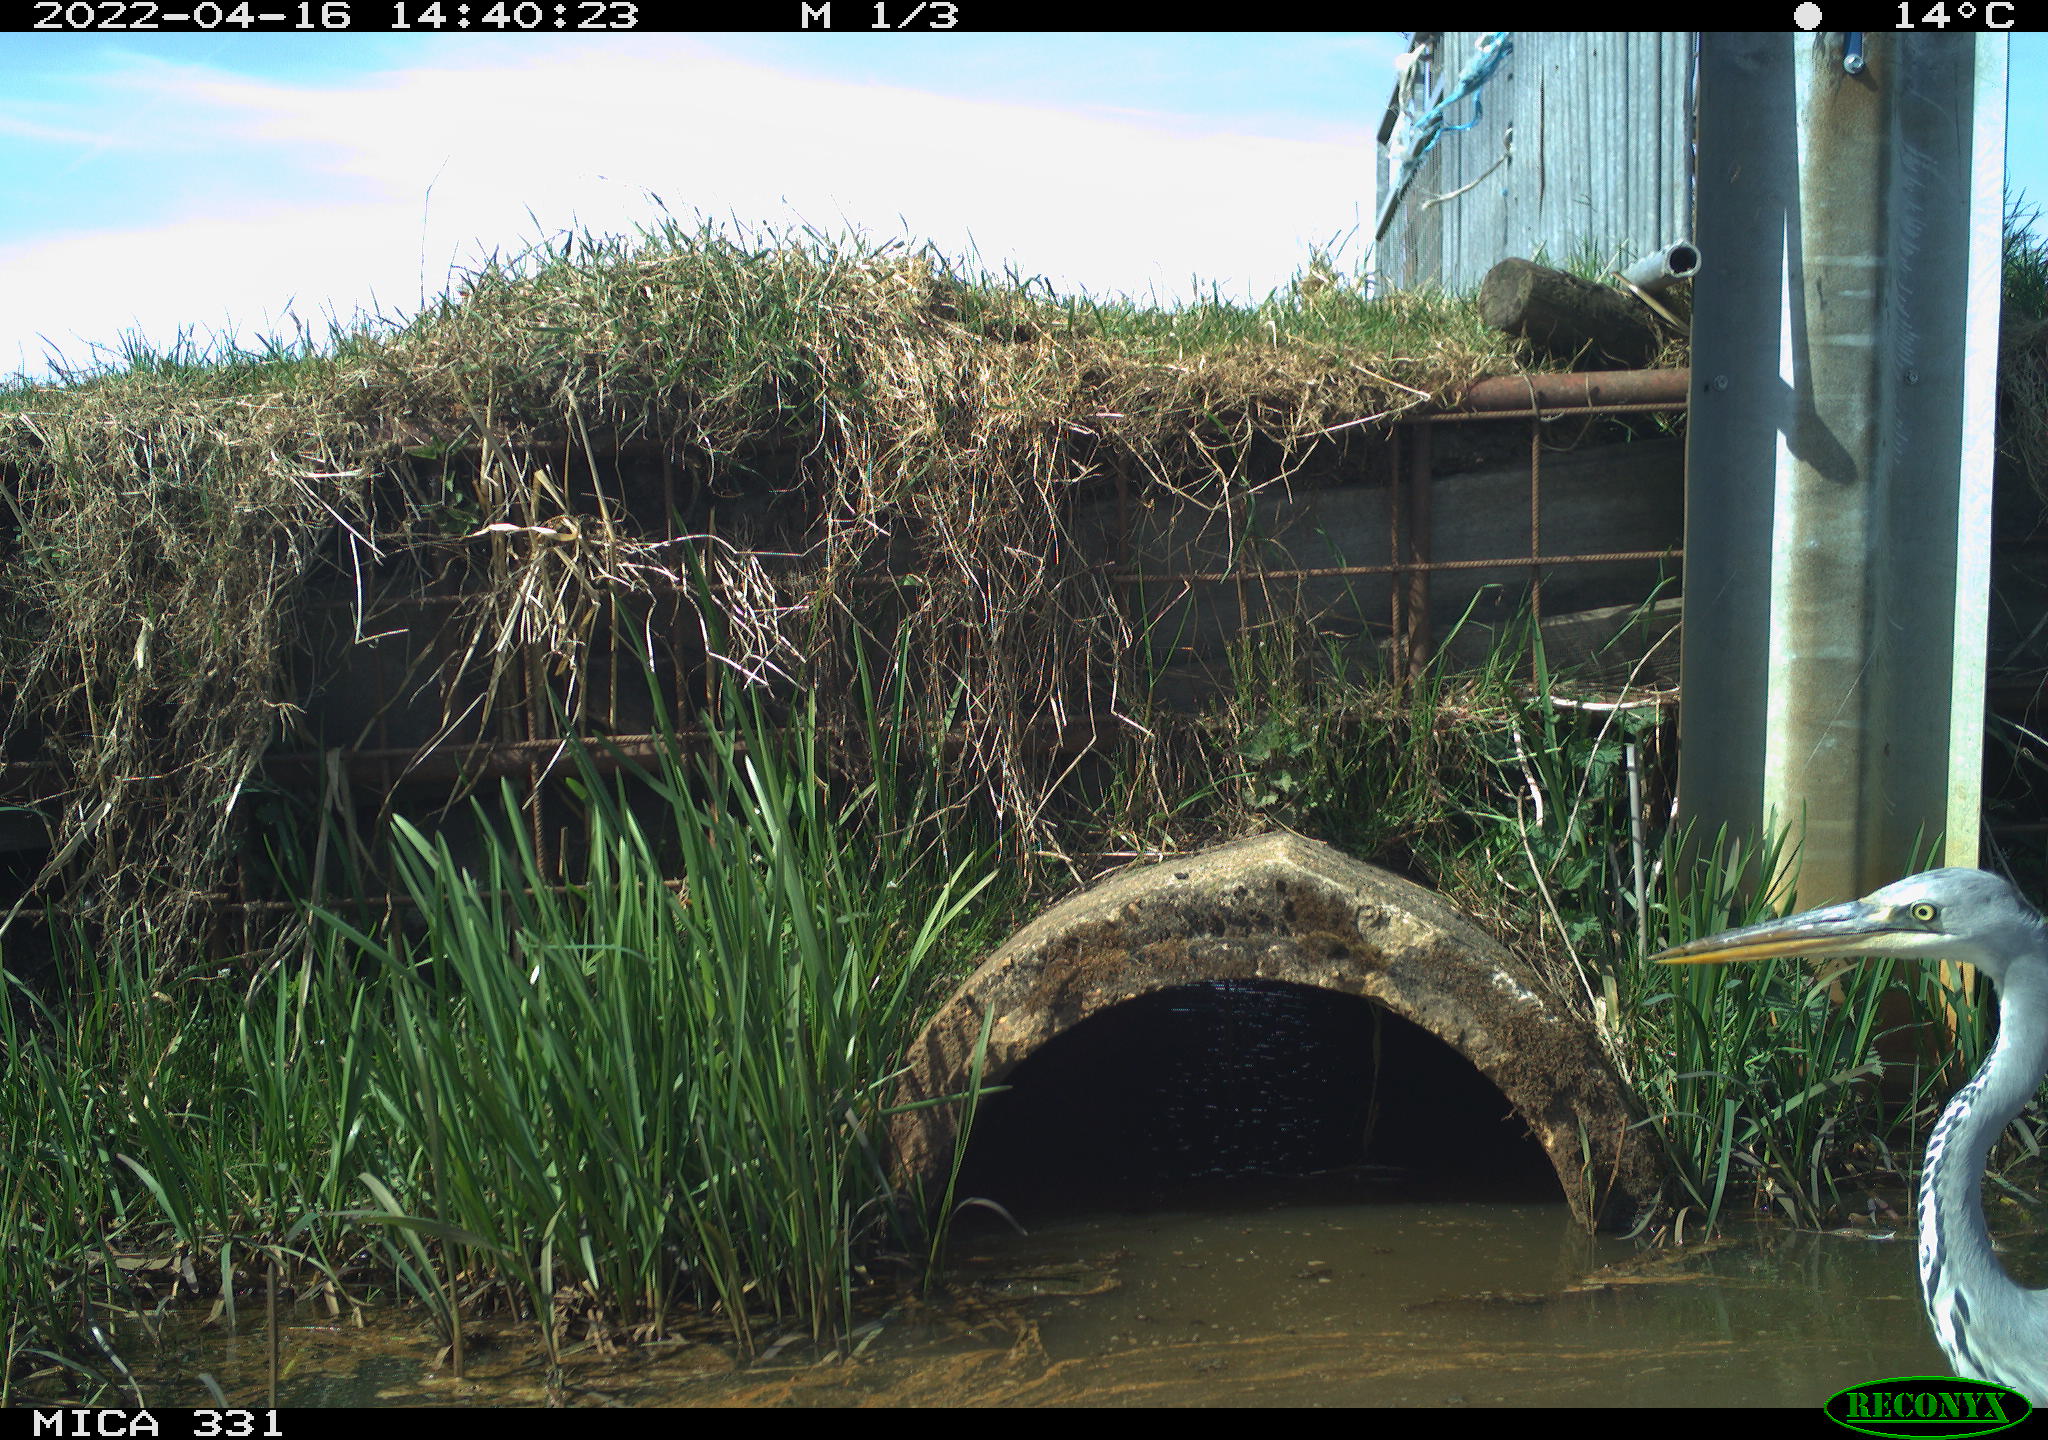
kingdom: Animalia
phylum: Chordata
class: Aves
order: Pelecaniformes
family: Ardeidae
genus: Ardea
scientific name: Ardea
